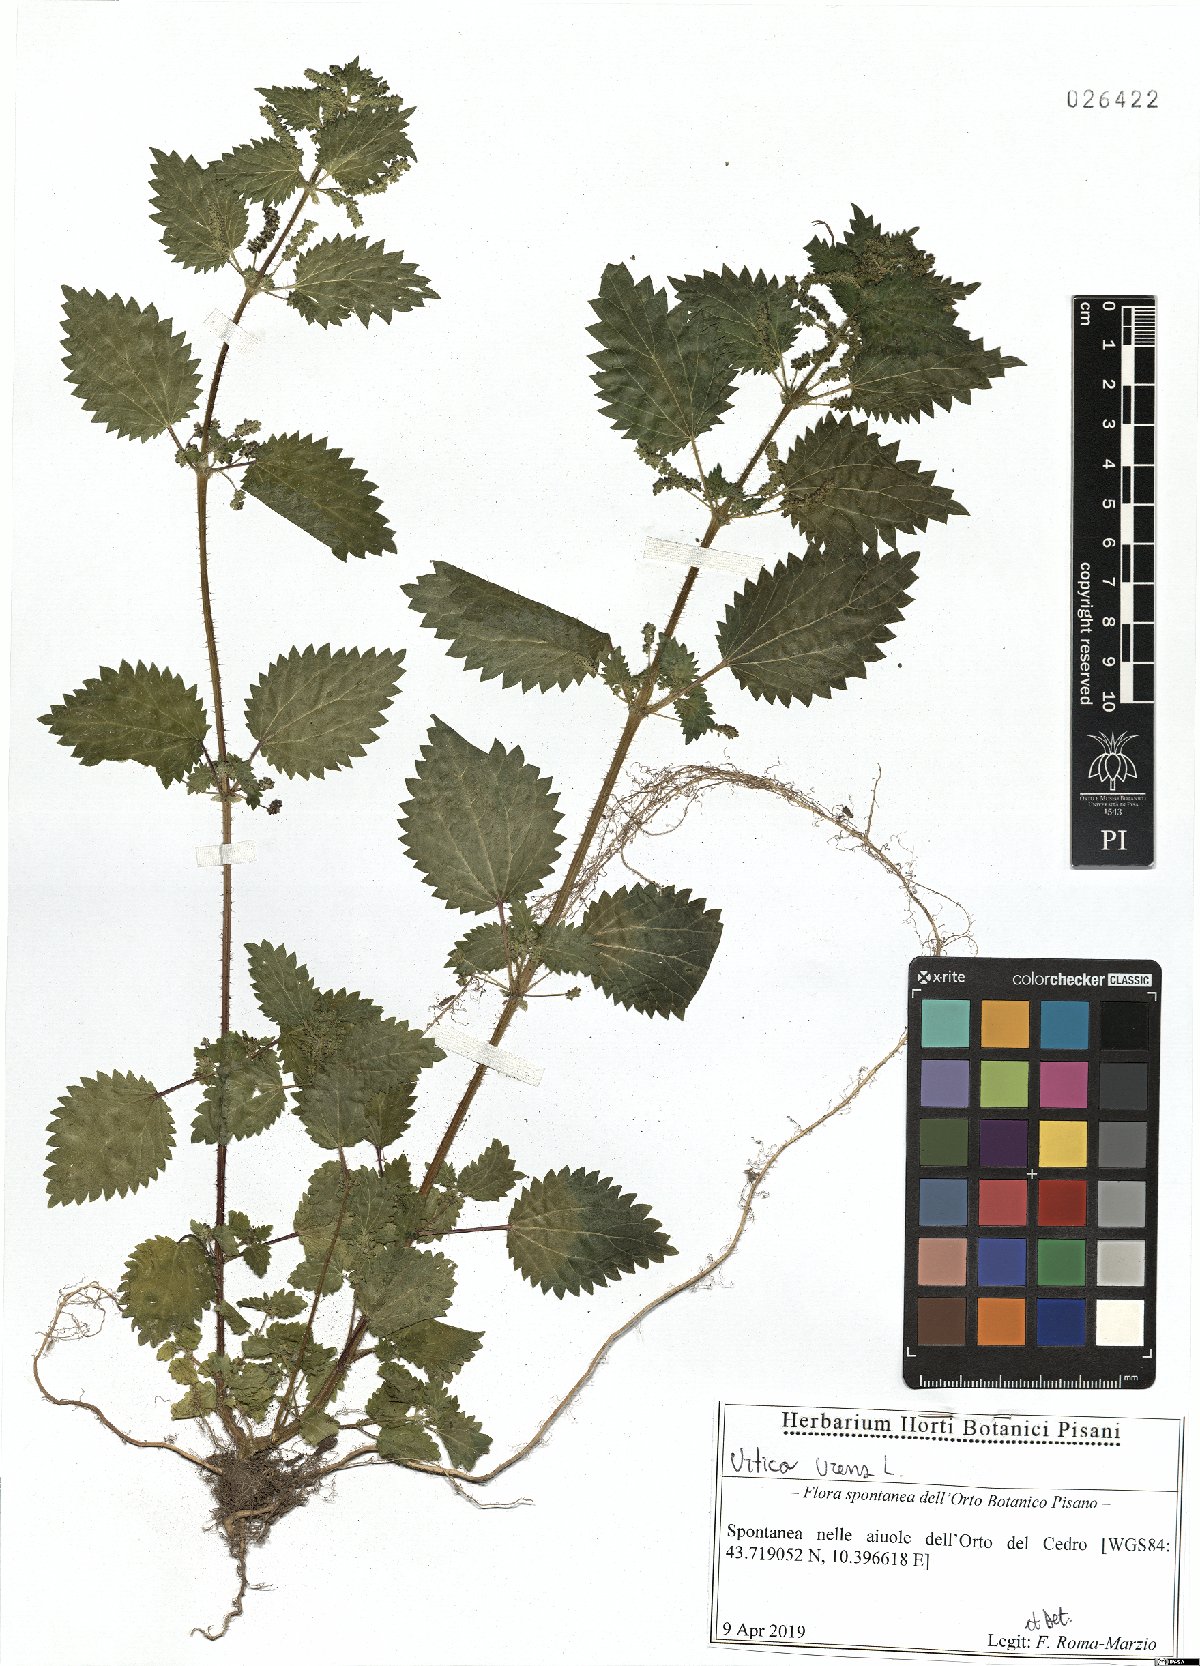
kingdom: Plantae
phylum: Tracheophyta
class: Magnoliopsida
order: Rosales
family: Urticaceae
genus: Urtica
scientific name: Urtica urens
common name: Dwarf nettle
